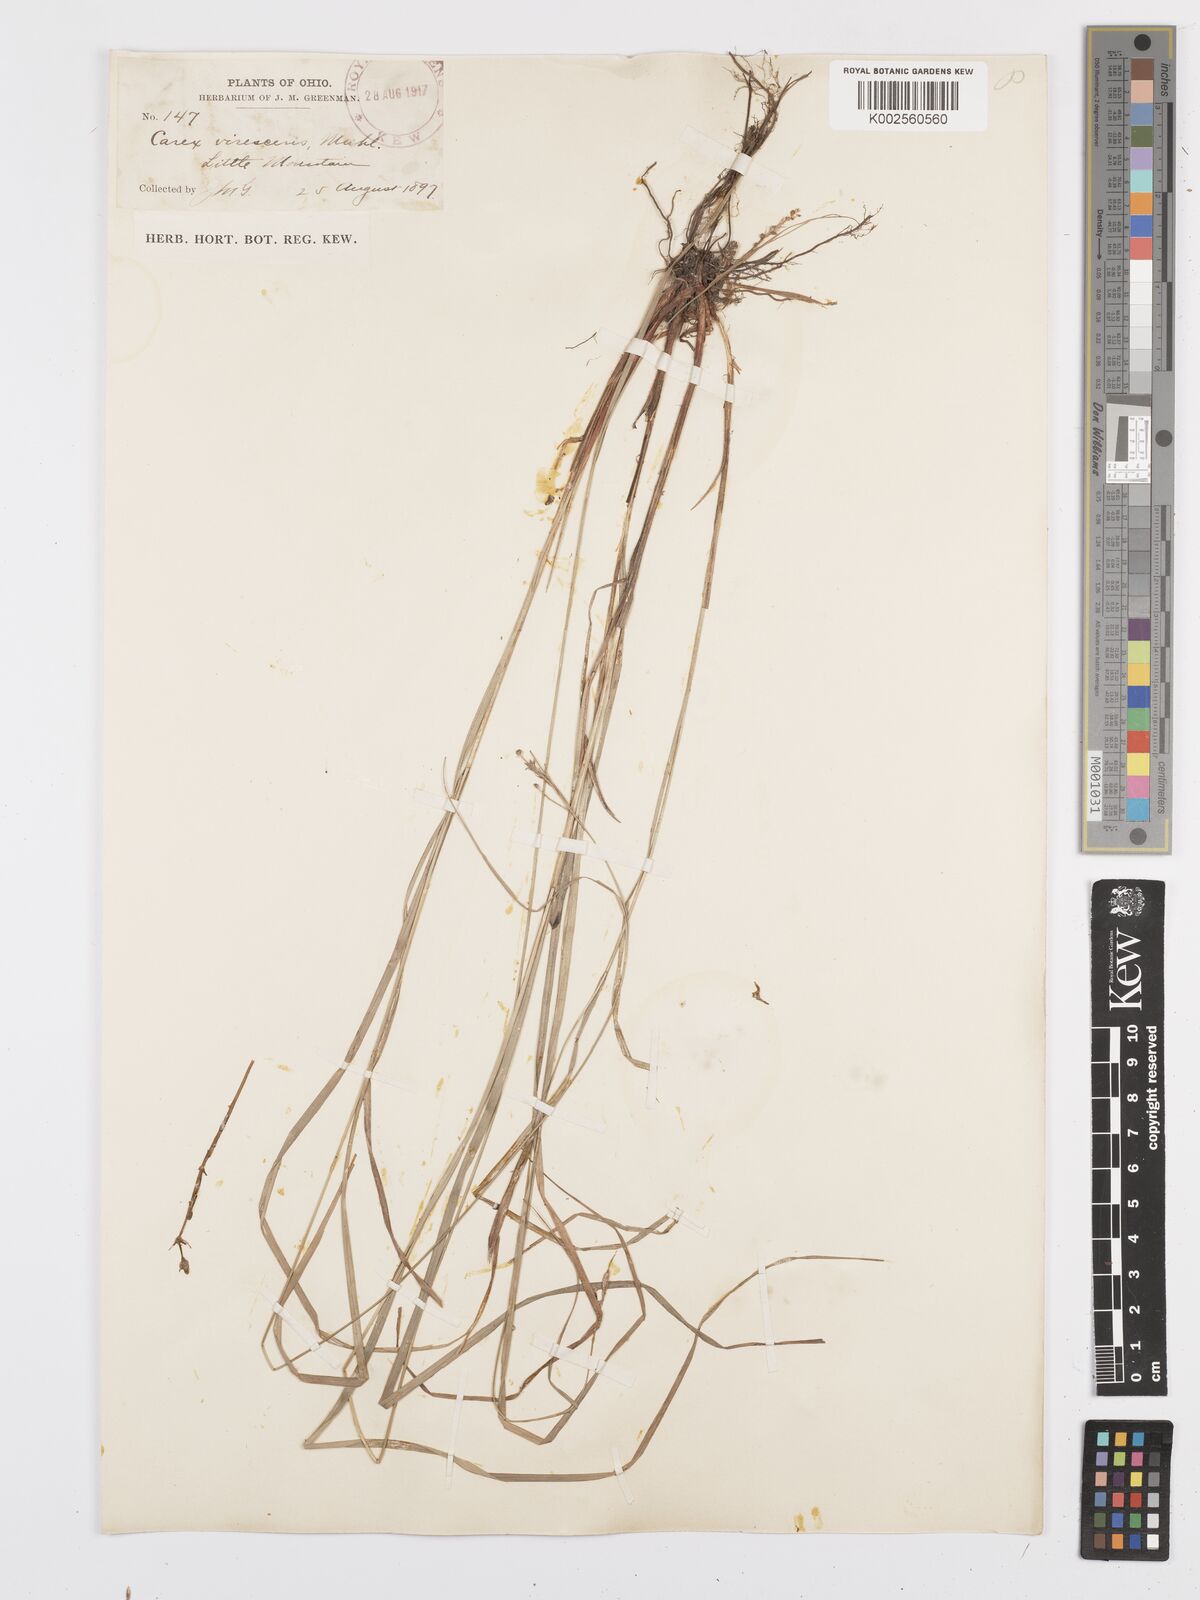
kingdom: Plantae
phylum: Tracheophyta
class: Liliopsida
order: Poales
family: Cyperaceae
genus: Carex
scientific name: Carex virescens
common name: Ribbed sedge
